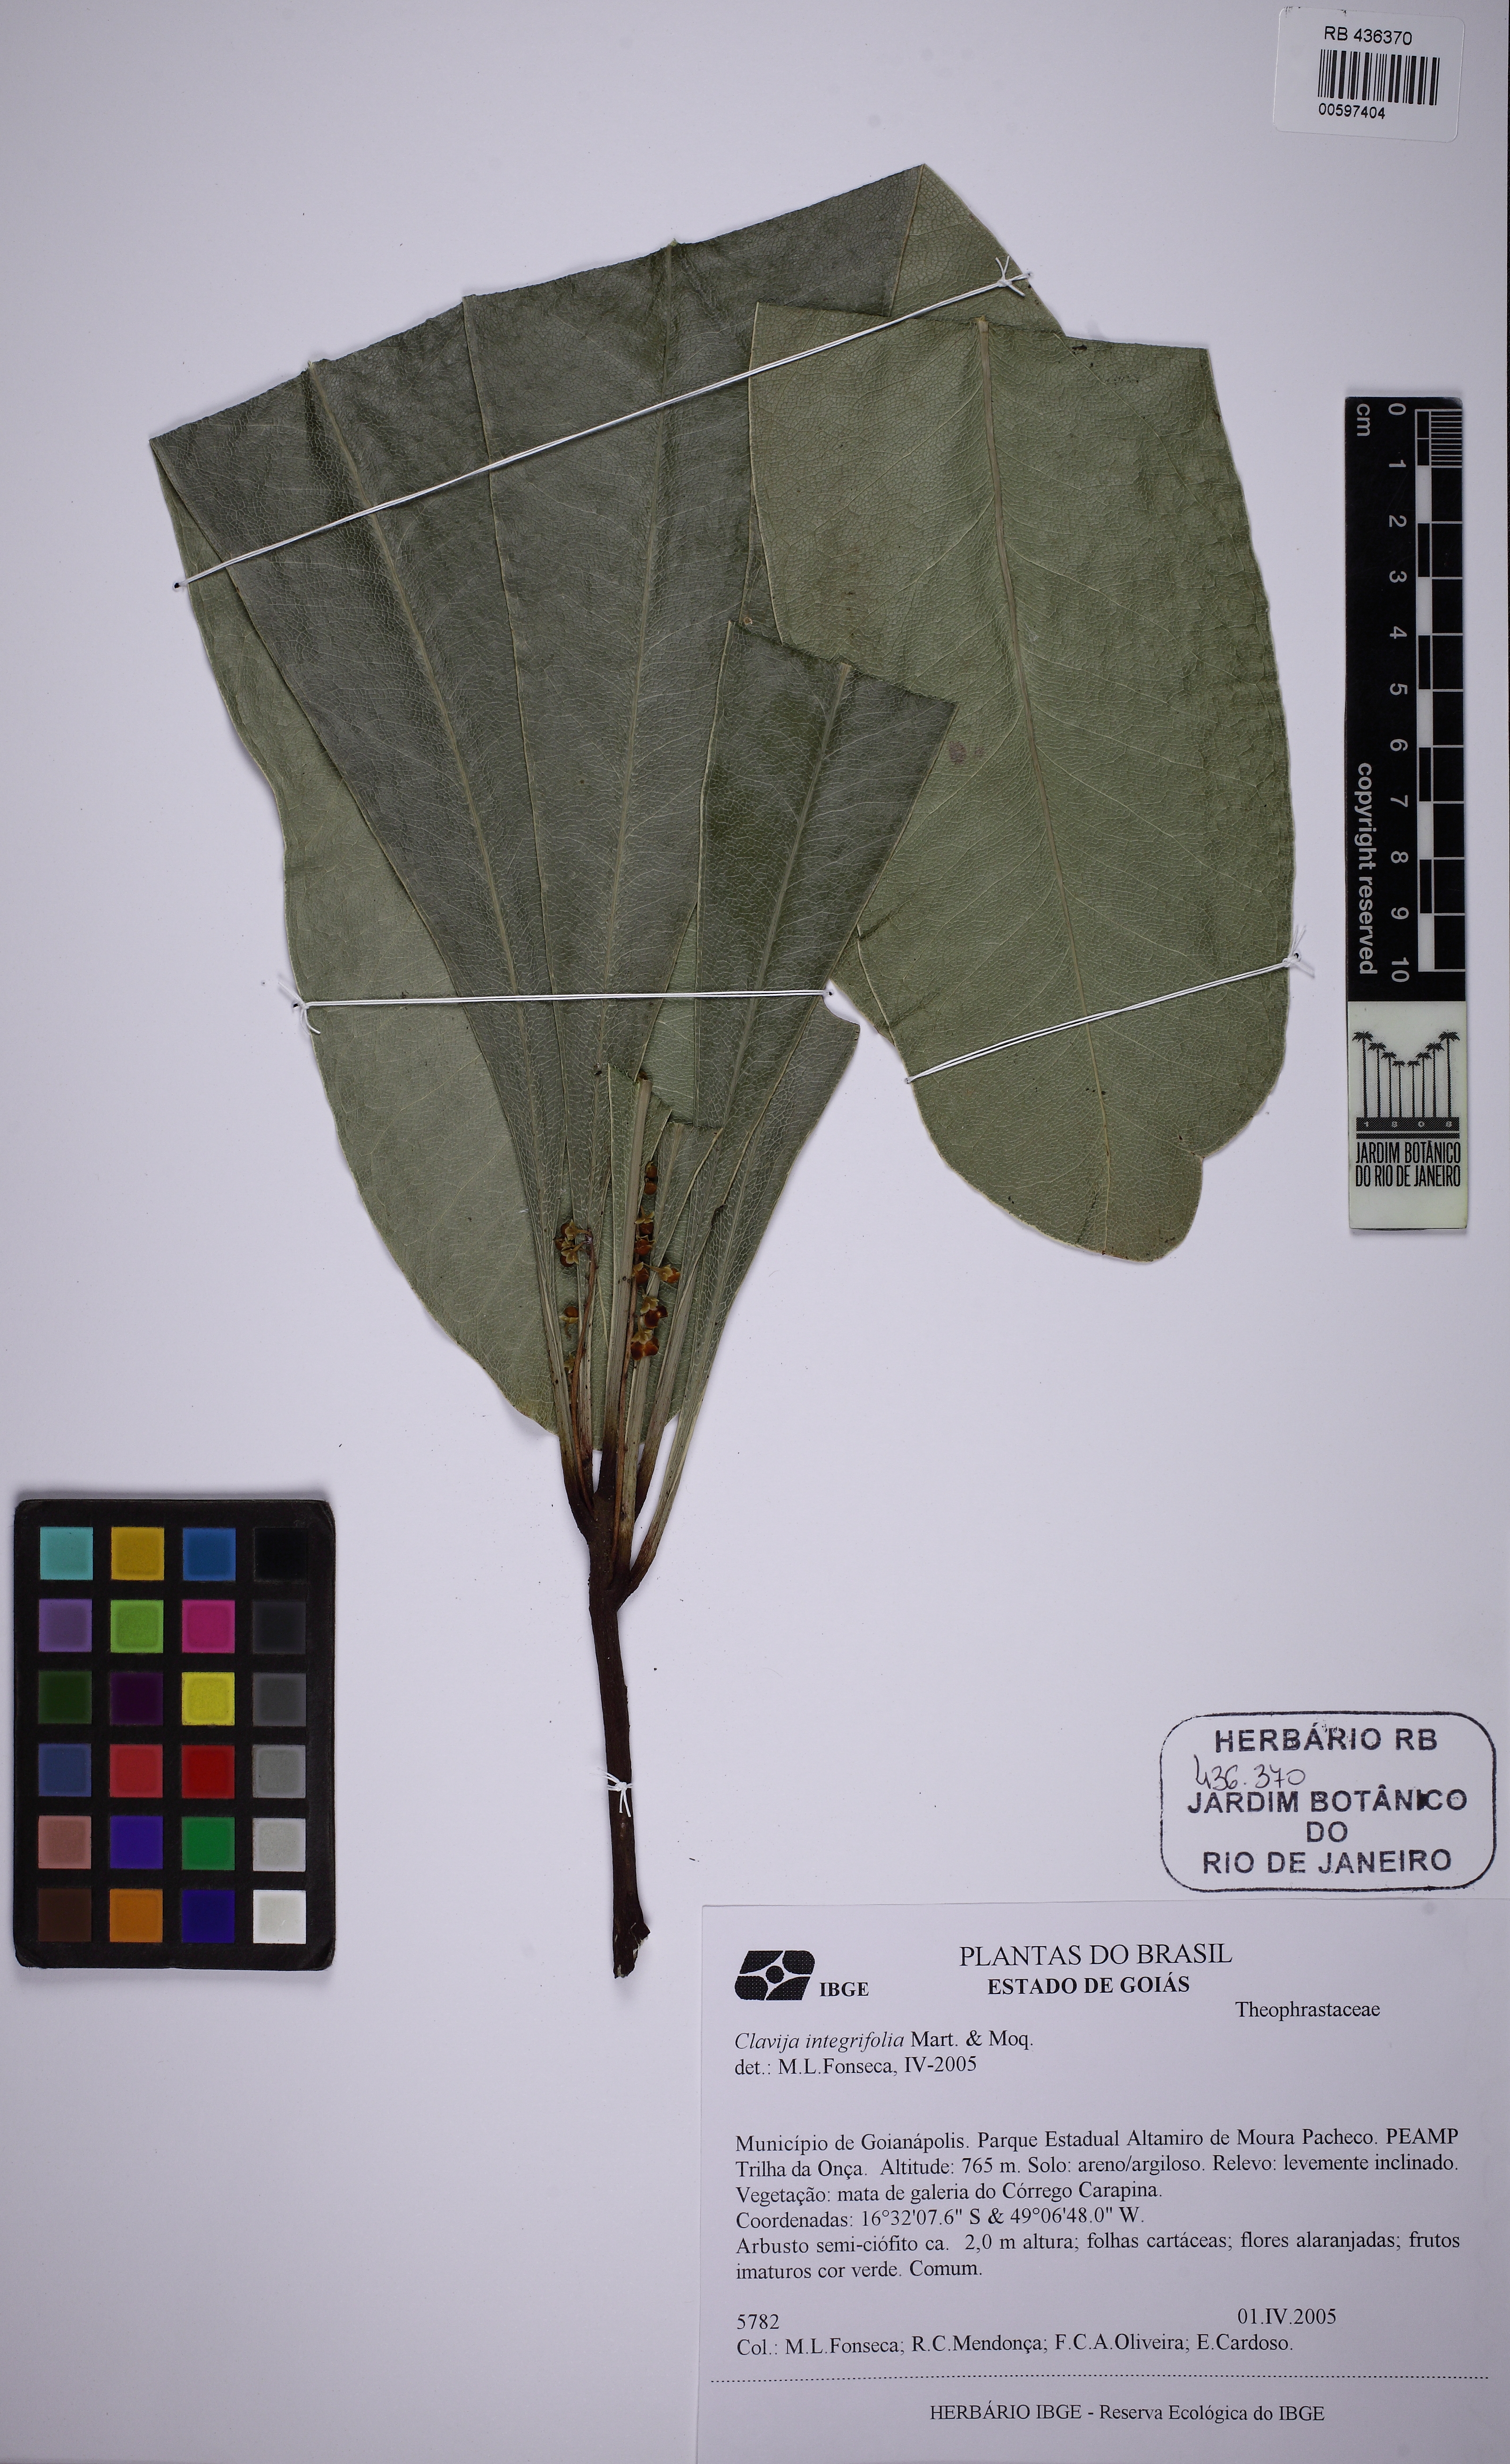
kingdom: Plantae
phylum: Tracheophyta
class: Magnoliopsida
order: Ericales
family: Primulaceae
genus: Clavija
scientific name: Clavija nutans
